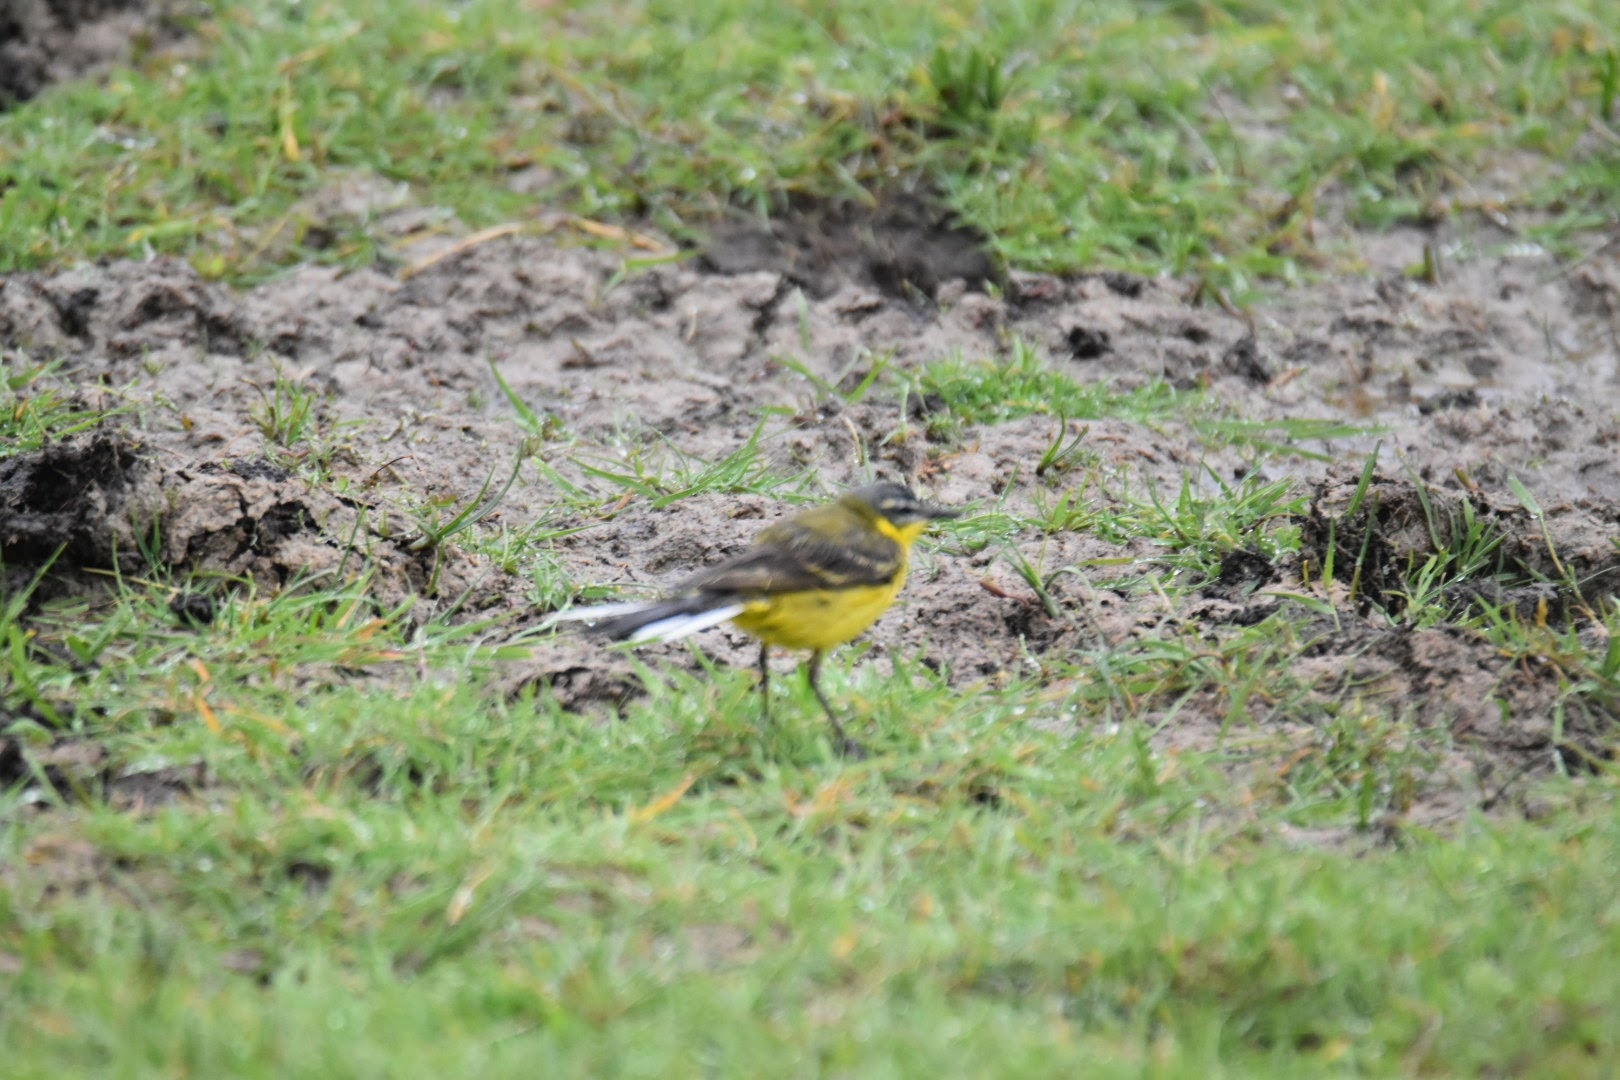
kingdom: Animalia
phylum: Chordata
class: Aves
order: Passeriformes
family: Motacillidae
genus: Motacilla
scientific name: Motacilla flava
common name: Gul vipstjert
